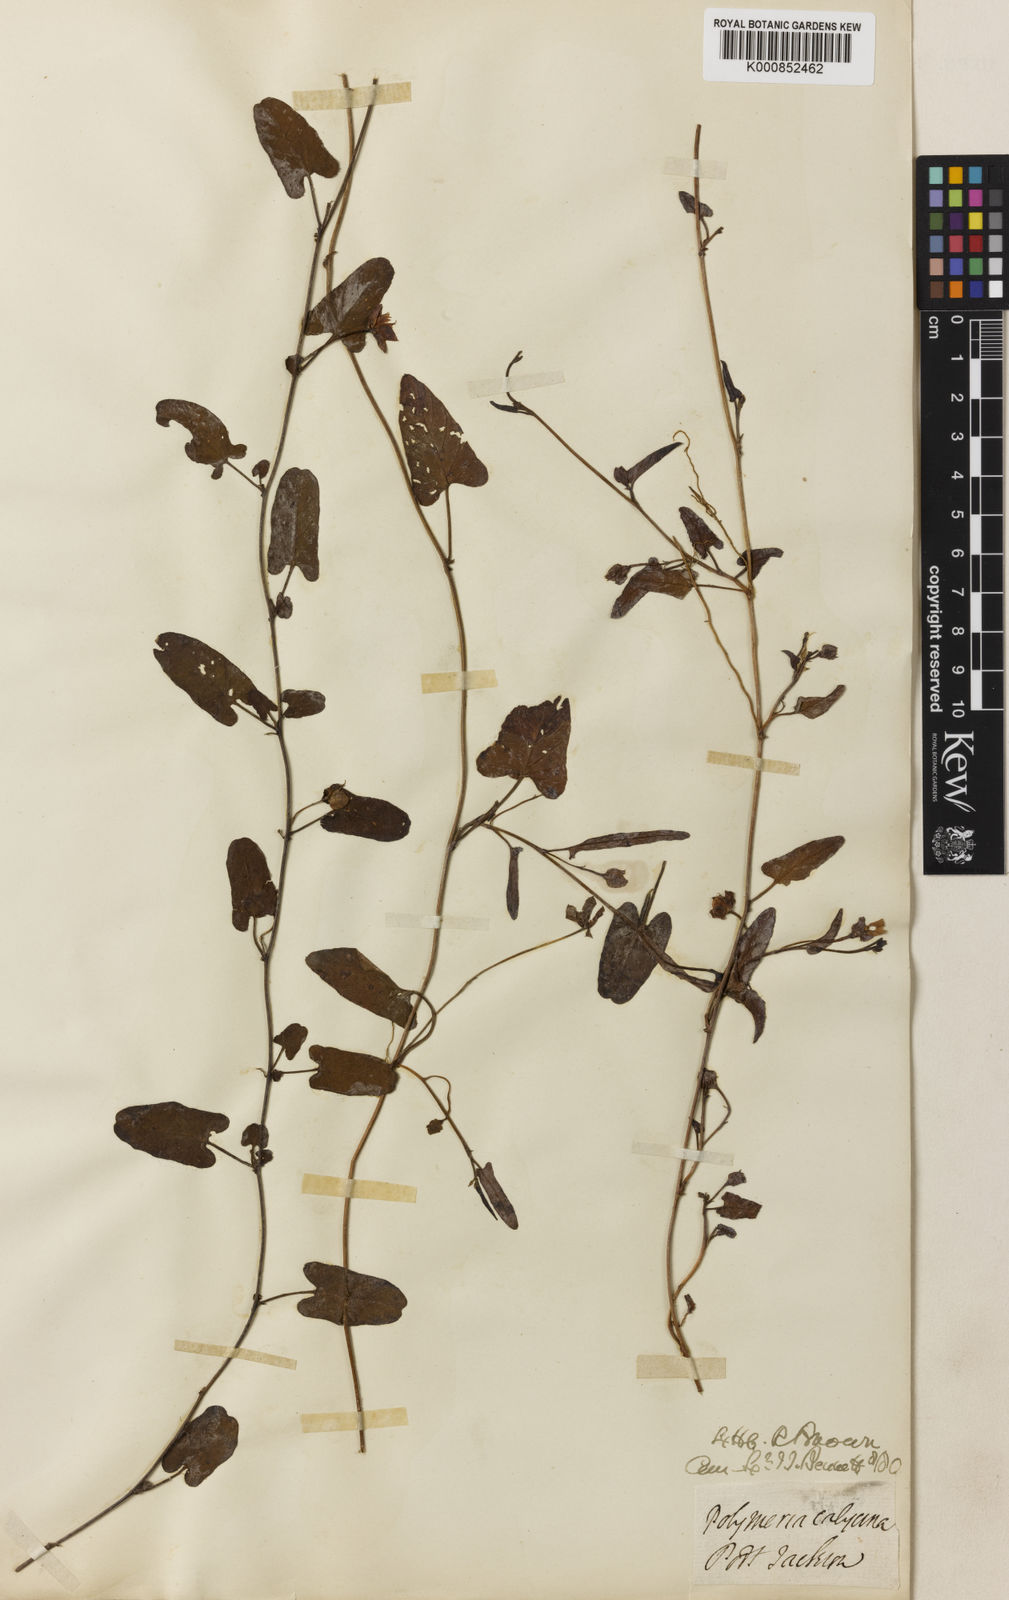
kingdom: Plantae
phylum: Tracheophyta
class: Magnoliopsida
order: Solanales
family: Convolvulaceae
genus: Polymeria
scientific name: Polymeria calycina
